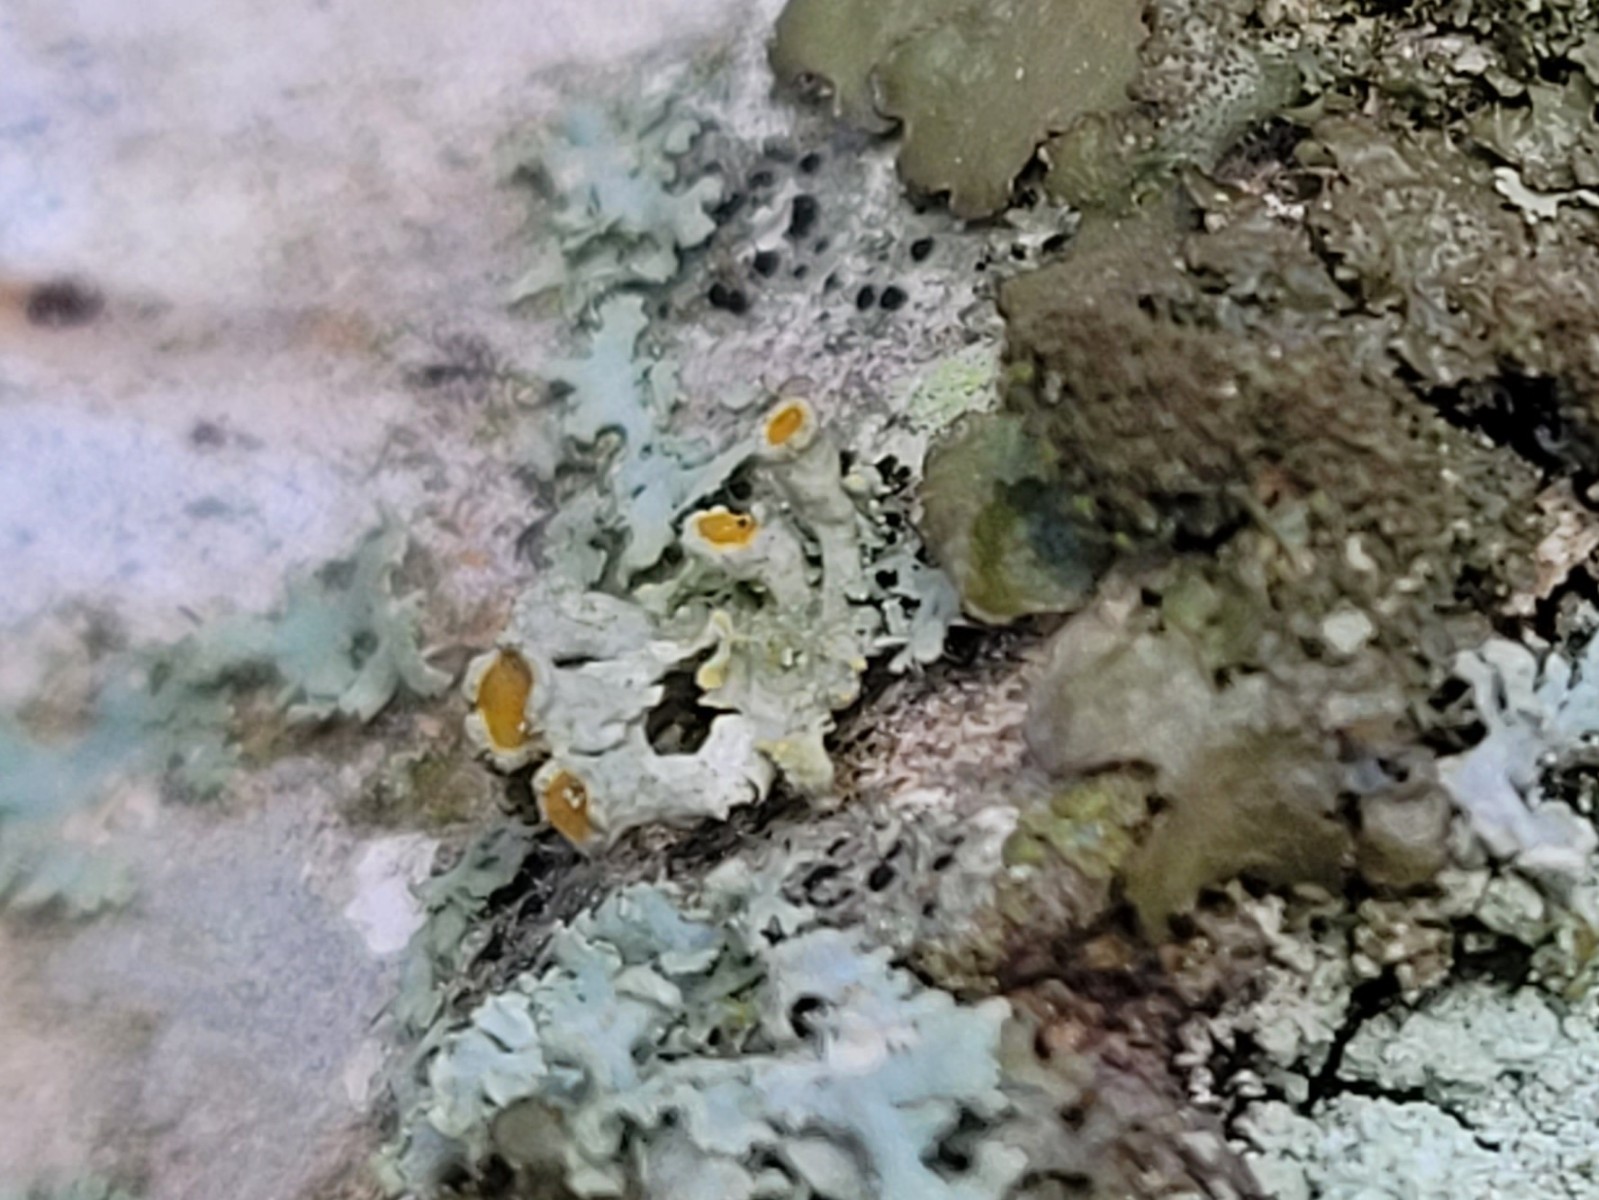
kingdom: Fungi
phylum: Ascomycota
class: Lecanoromycetes
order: Teloschistales
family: Teloschistaceae
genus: Xanthoria
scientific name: Xanthoria parietina
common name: almindelig væggelav
